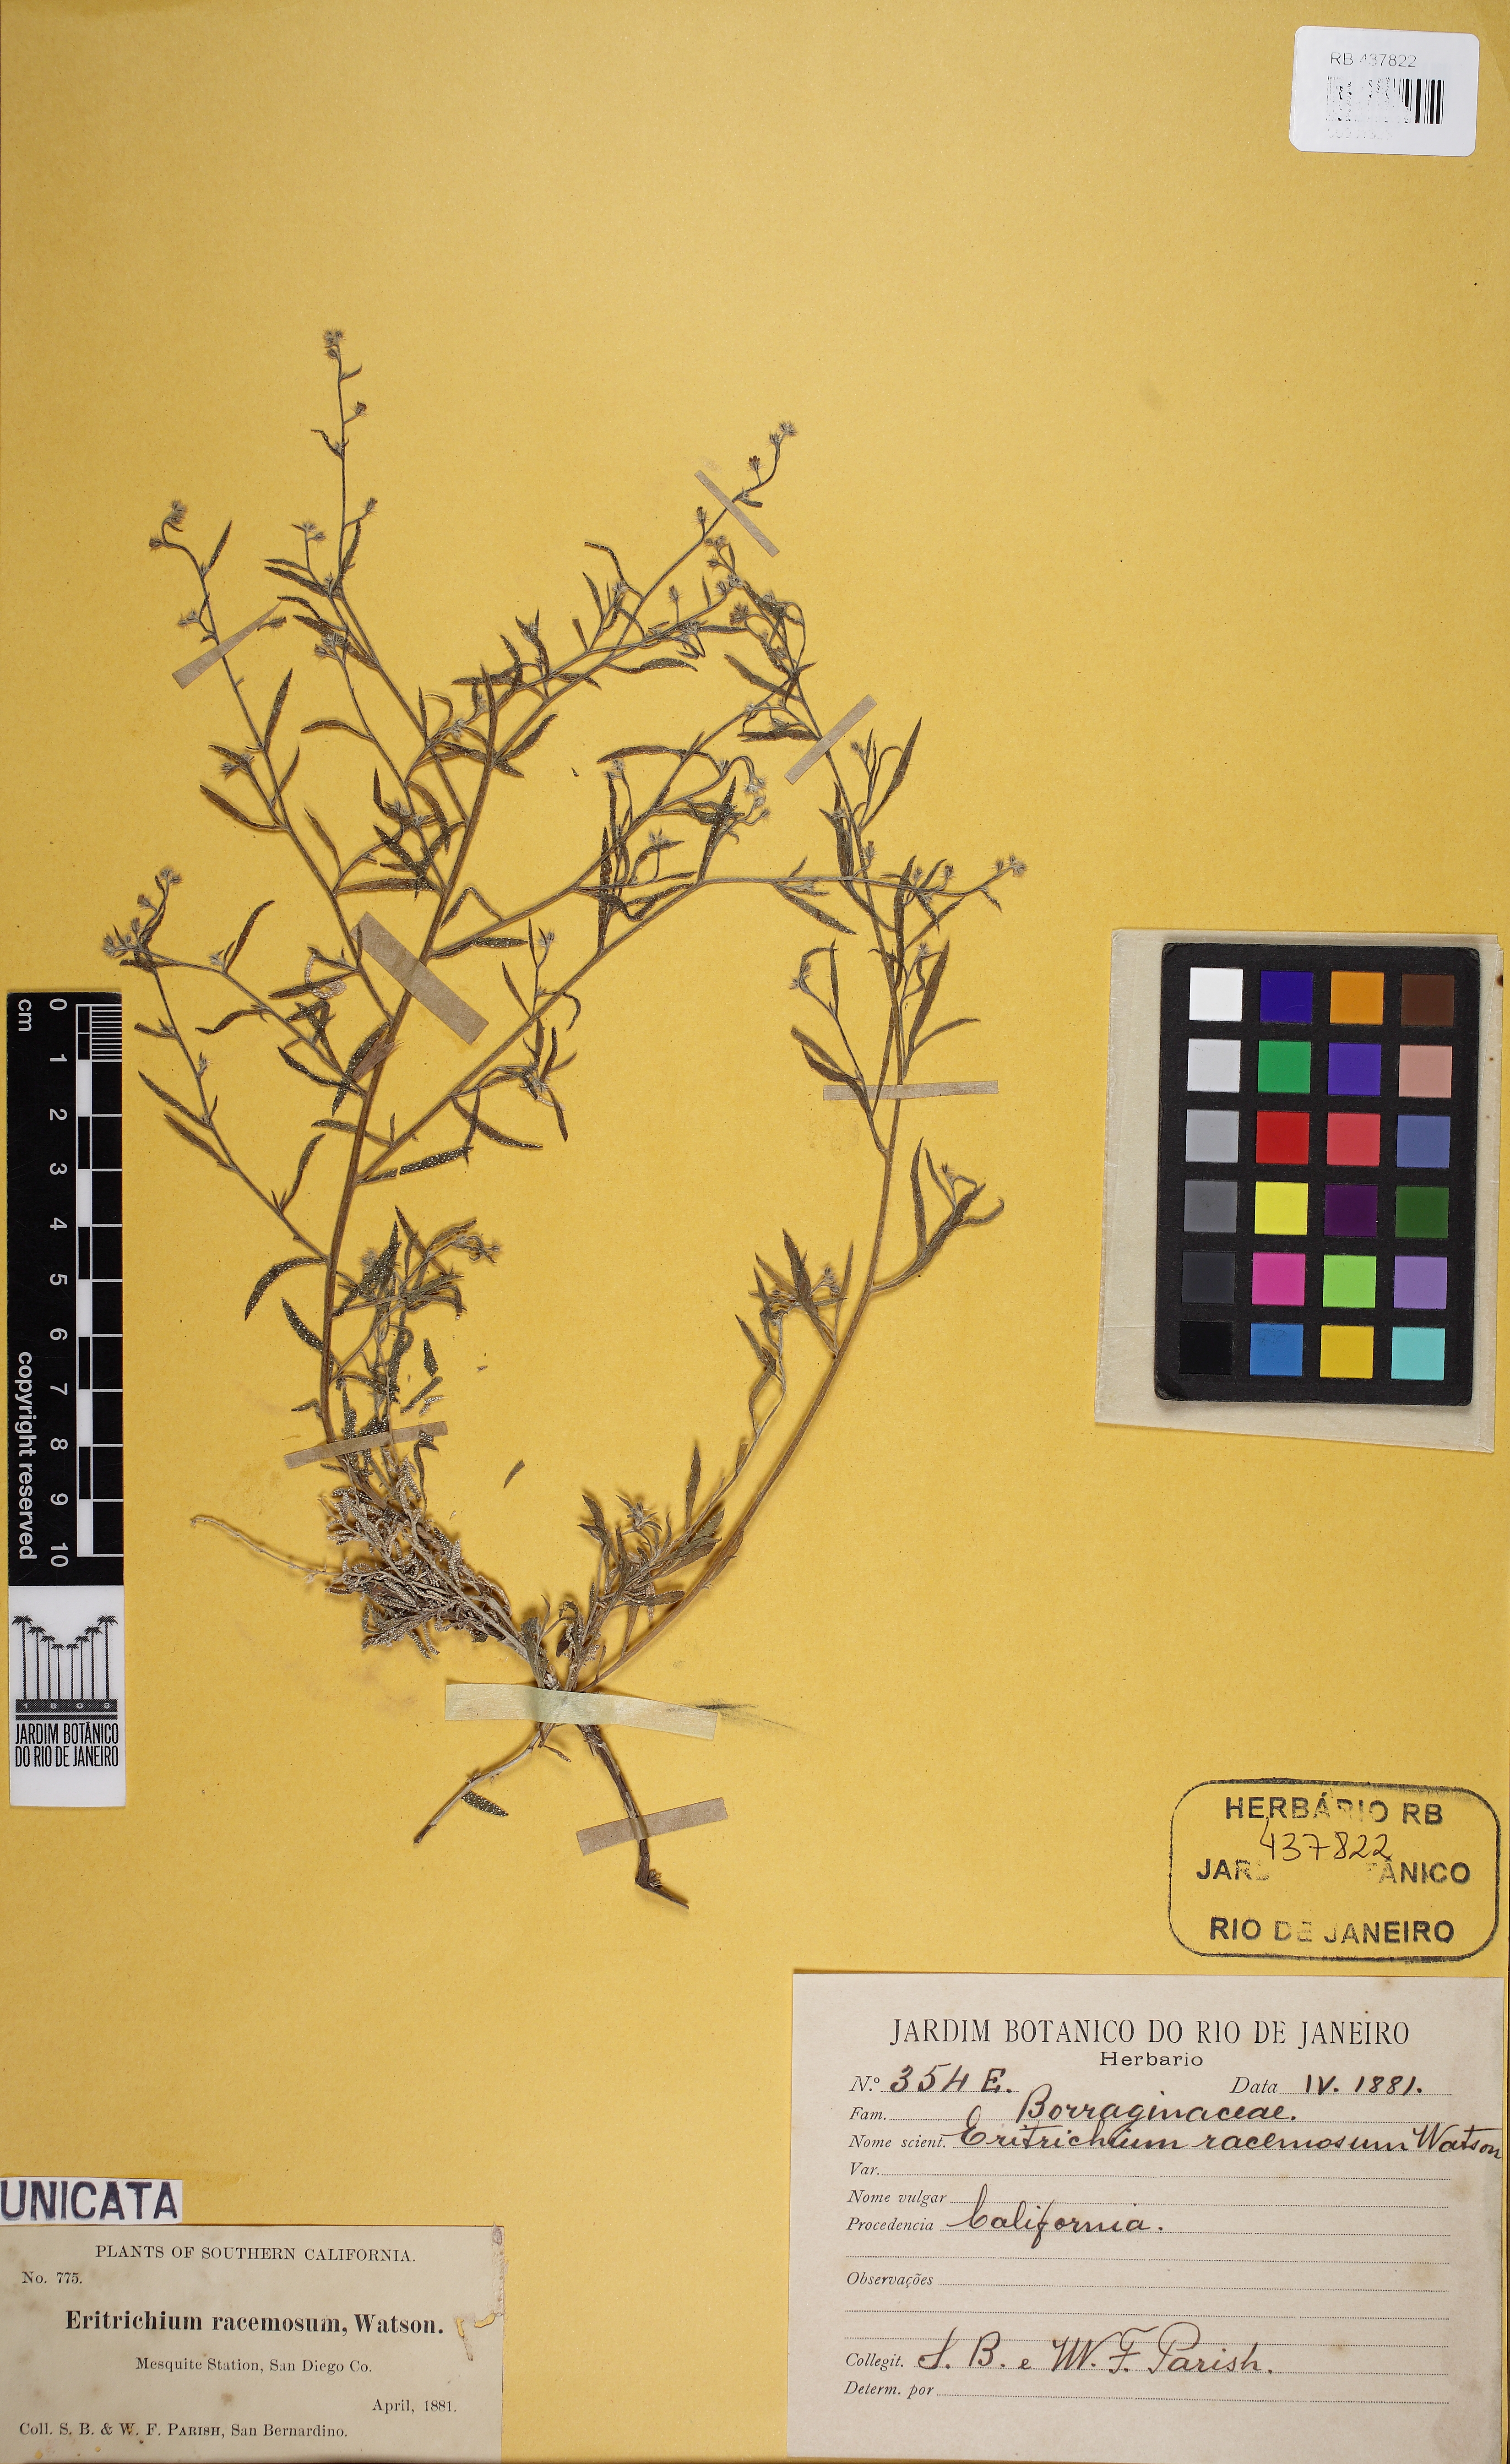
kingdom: Plantae
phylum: Tracheophyta
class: Magnoliopsida
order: Gentianales
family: Apocynaceae
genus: Oxypetalum
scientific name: Oxypetalum cordifolium
